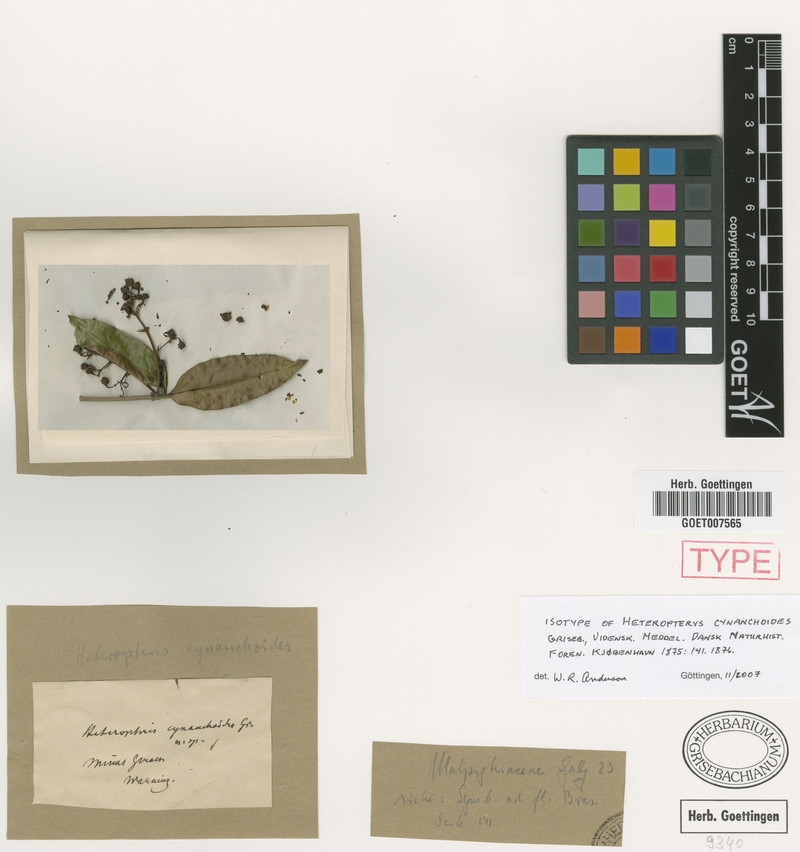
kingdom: Plantae
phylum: Tracheophyta
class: Magnoliopsida
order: Malpighiales
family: Malpighiaceae
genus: Heteropterys
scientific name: Heteropterys cynanchoides
